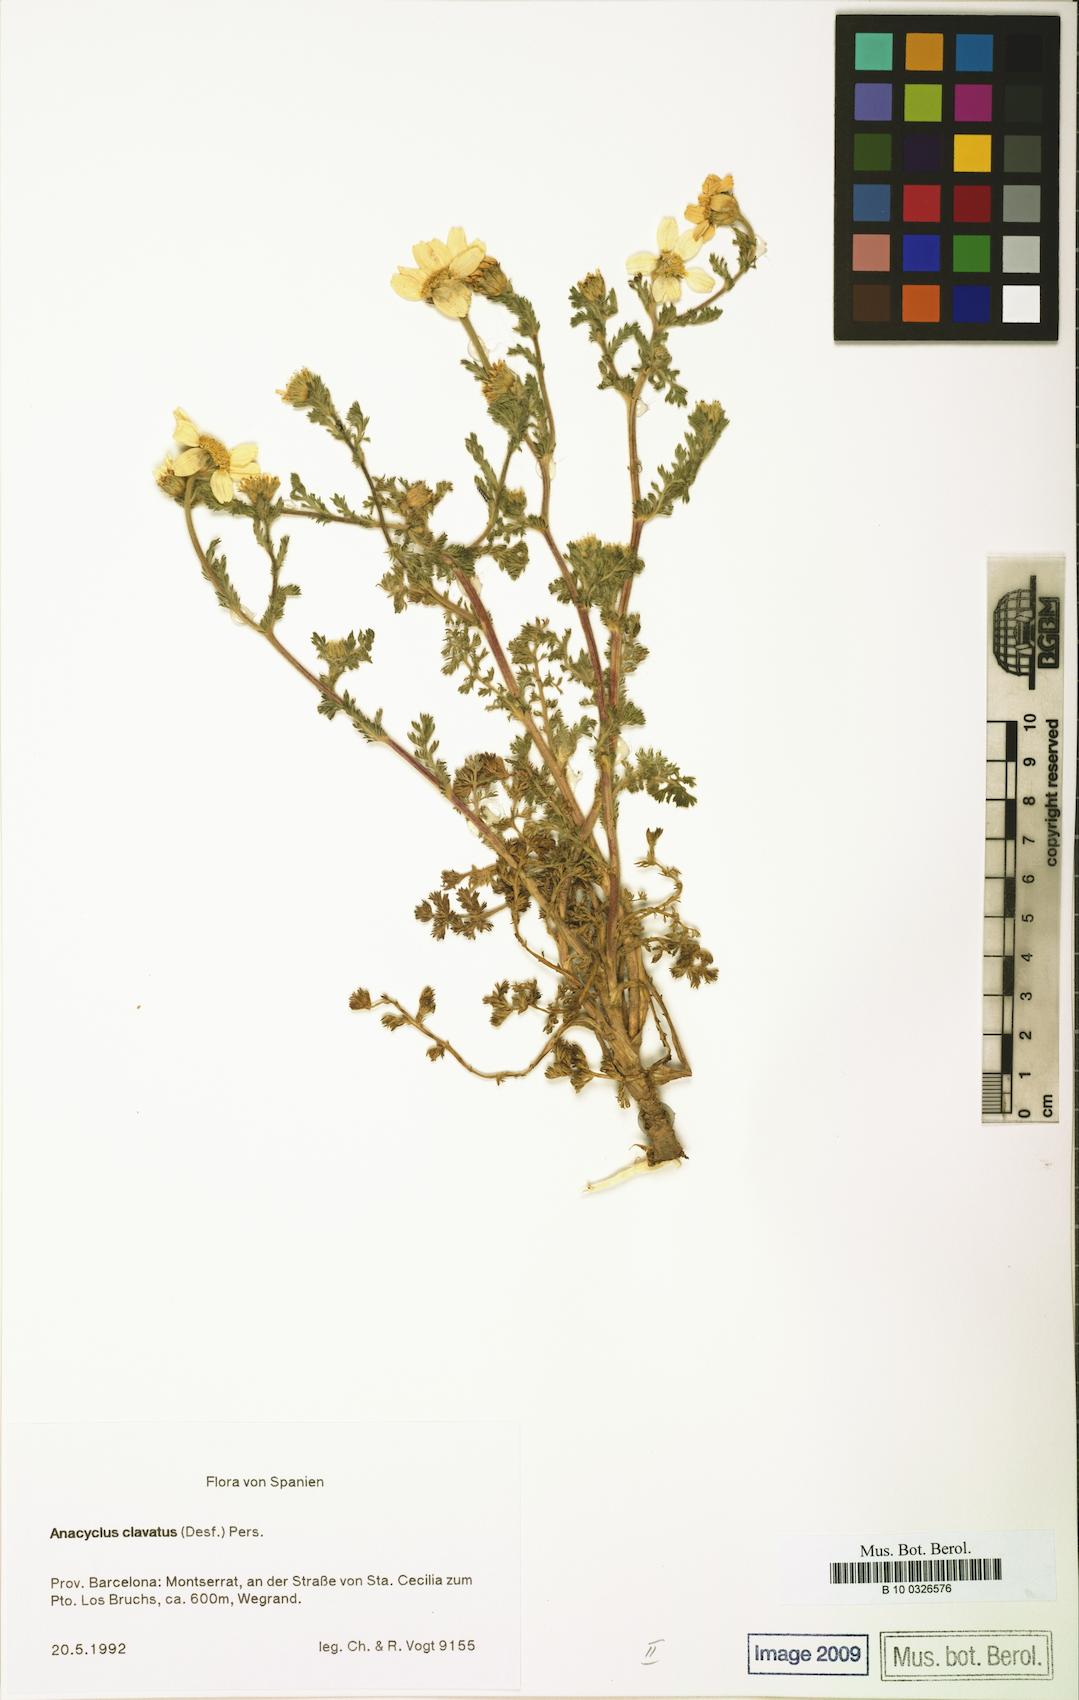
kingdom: Plantae
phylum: Tracheophyta
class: Magnoliopsida
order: Asterales
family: Asteraceae
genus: Anacyclus
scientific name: Anacyclus clavatus
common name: Whitebuttons
